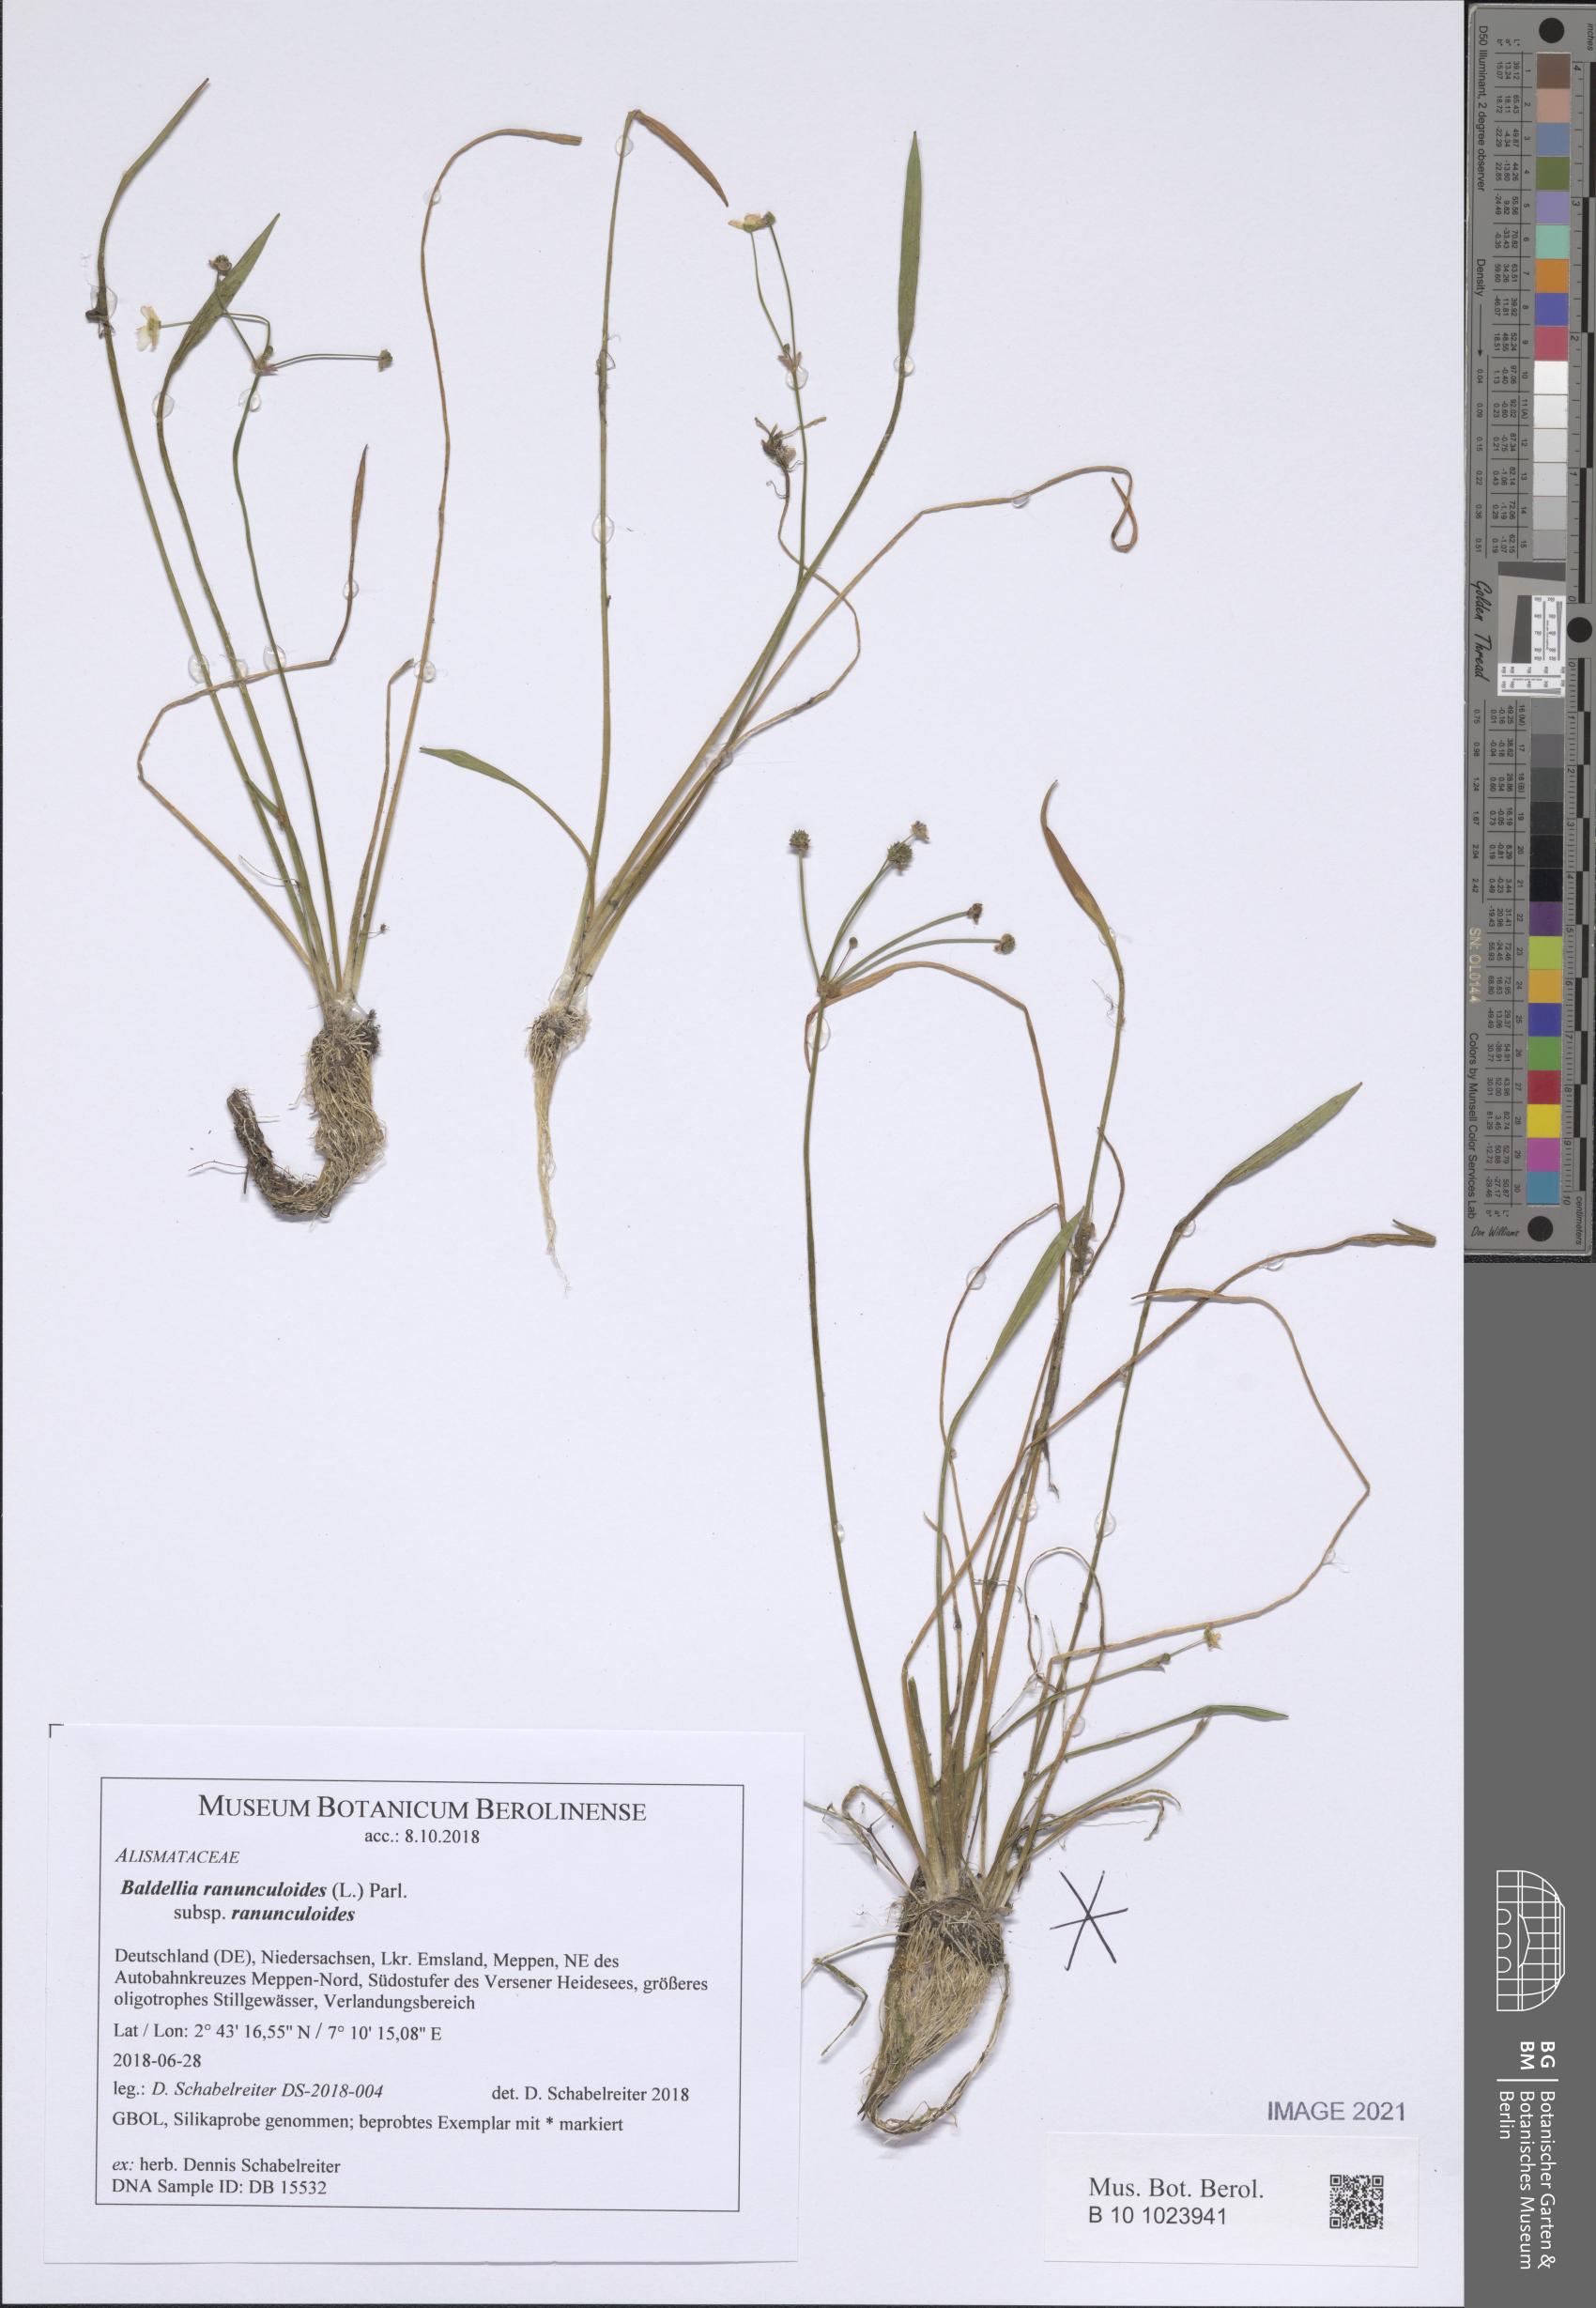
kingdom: Plantae
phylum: Tracheophyta
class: Liliopsida
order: Alismatales
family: Alismataceae
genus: Baldellia
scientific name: Baldellia ranunculoides
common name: Lesser water-plantain
